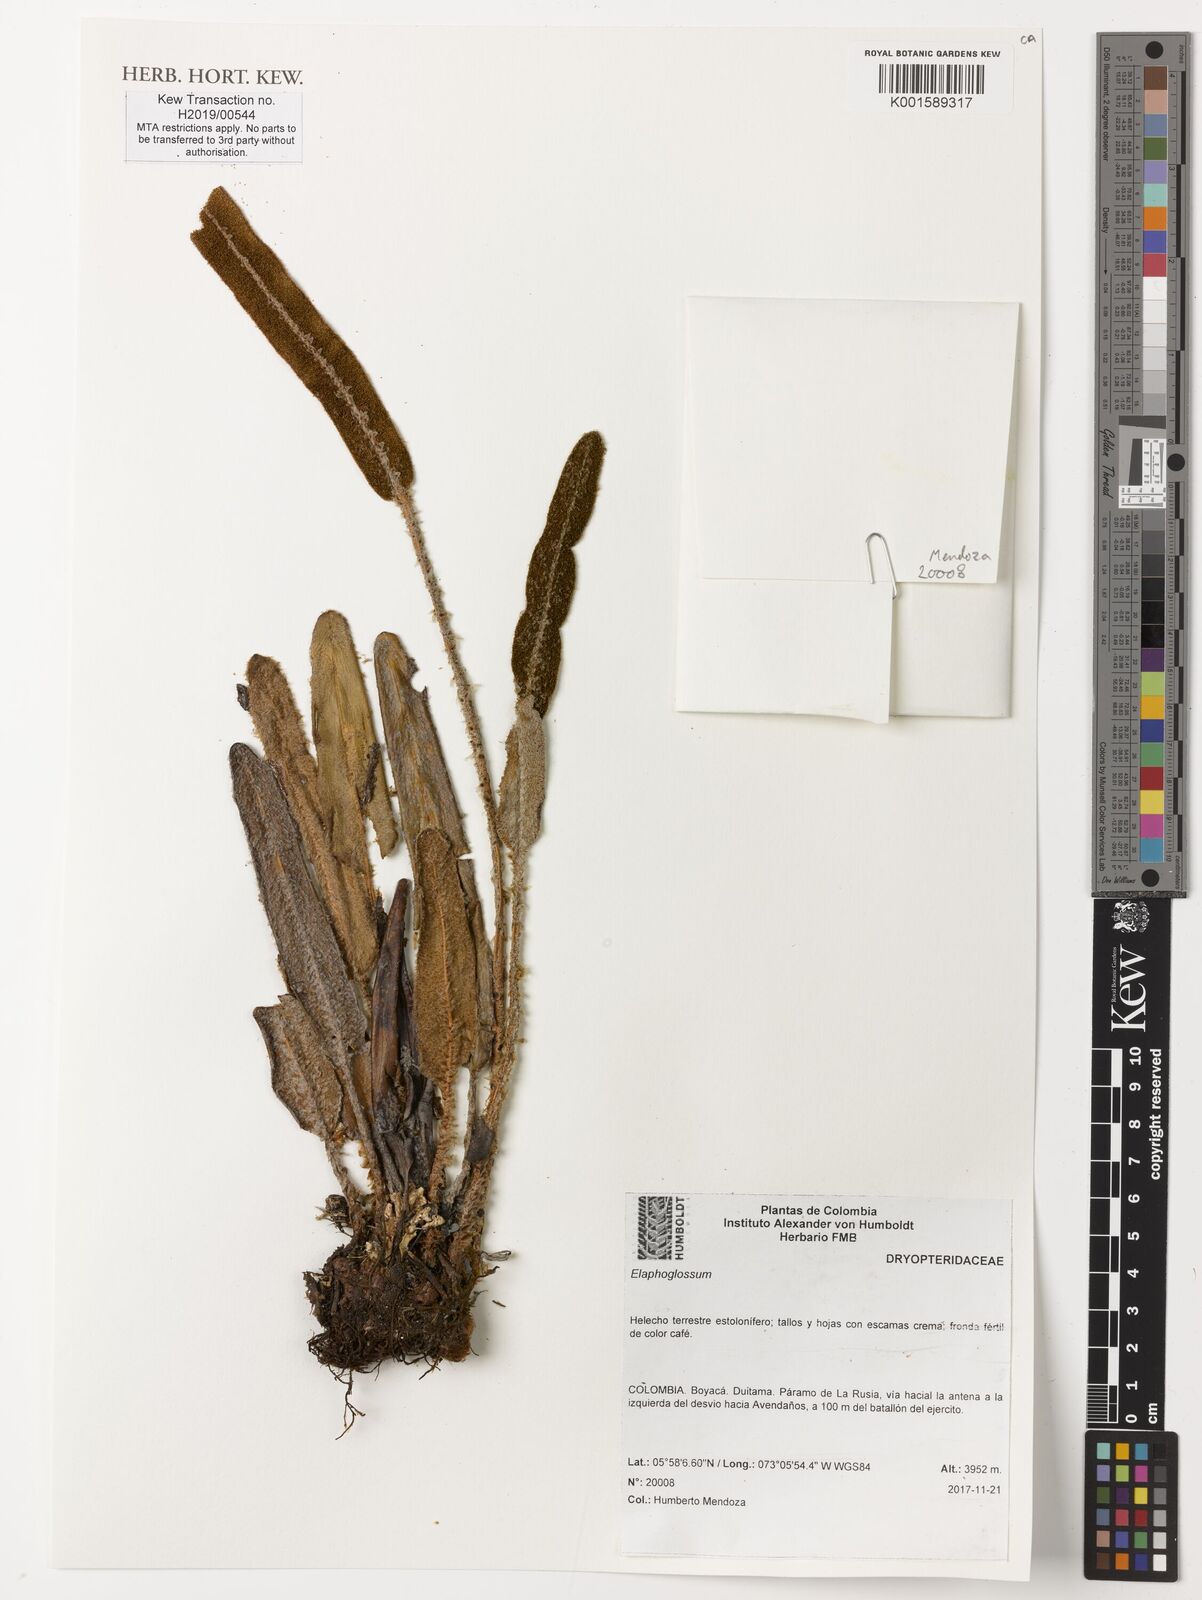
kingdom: Plantae
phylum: Tracheophyta
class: Polypodiopsida
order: Polypodiales
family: Dryopteridaceae
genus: Elaphoglossum
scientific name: Elaphoglossum
